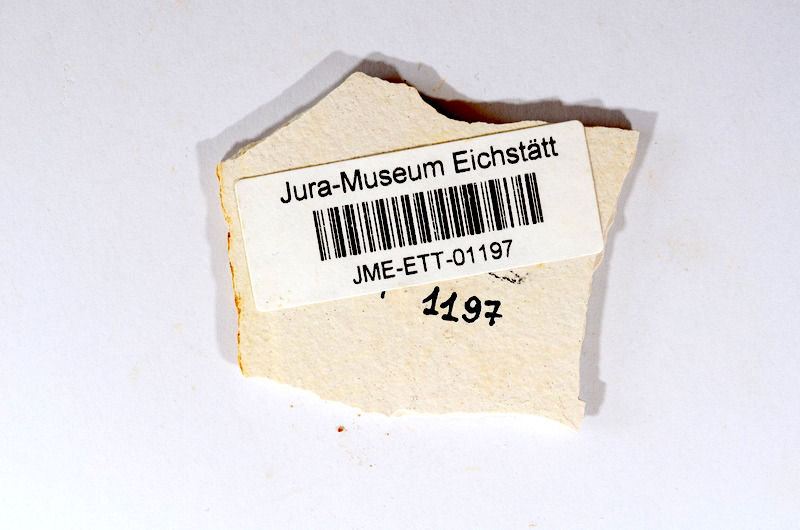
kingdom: Animalia
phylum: Chordata
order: Salmoniformes
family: Orthogonikleithridae
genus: Orthogonikleithrus
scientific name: Orthogonikleithrus hoelli
